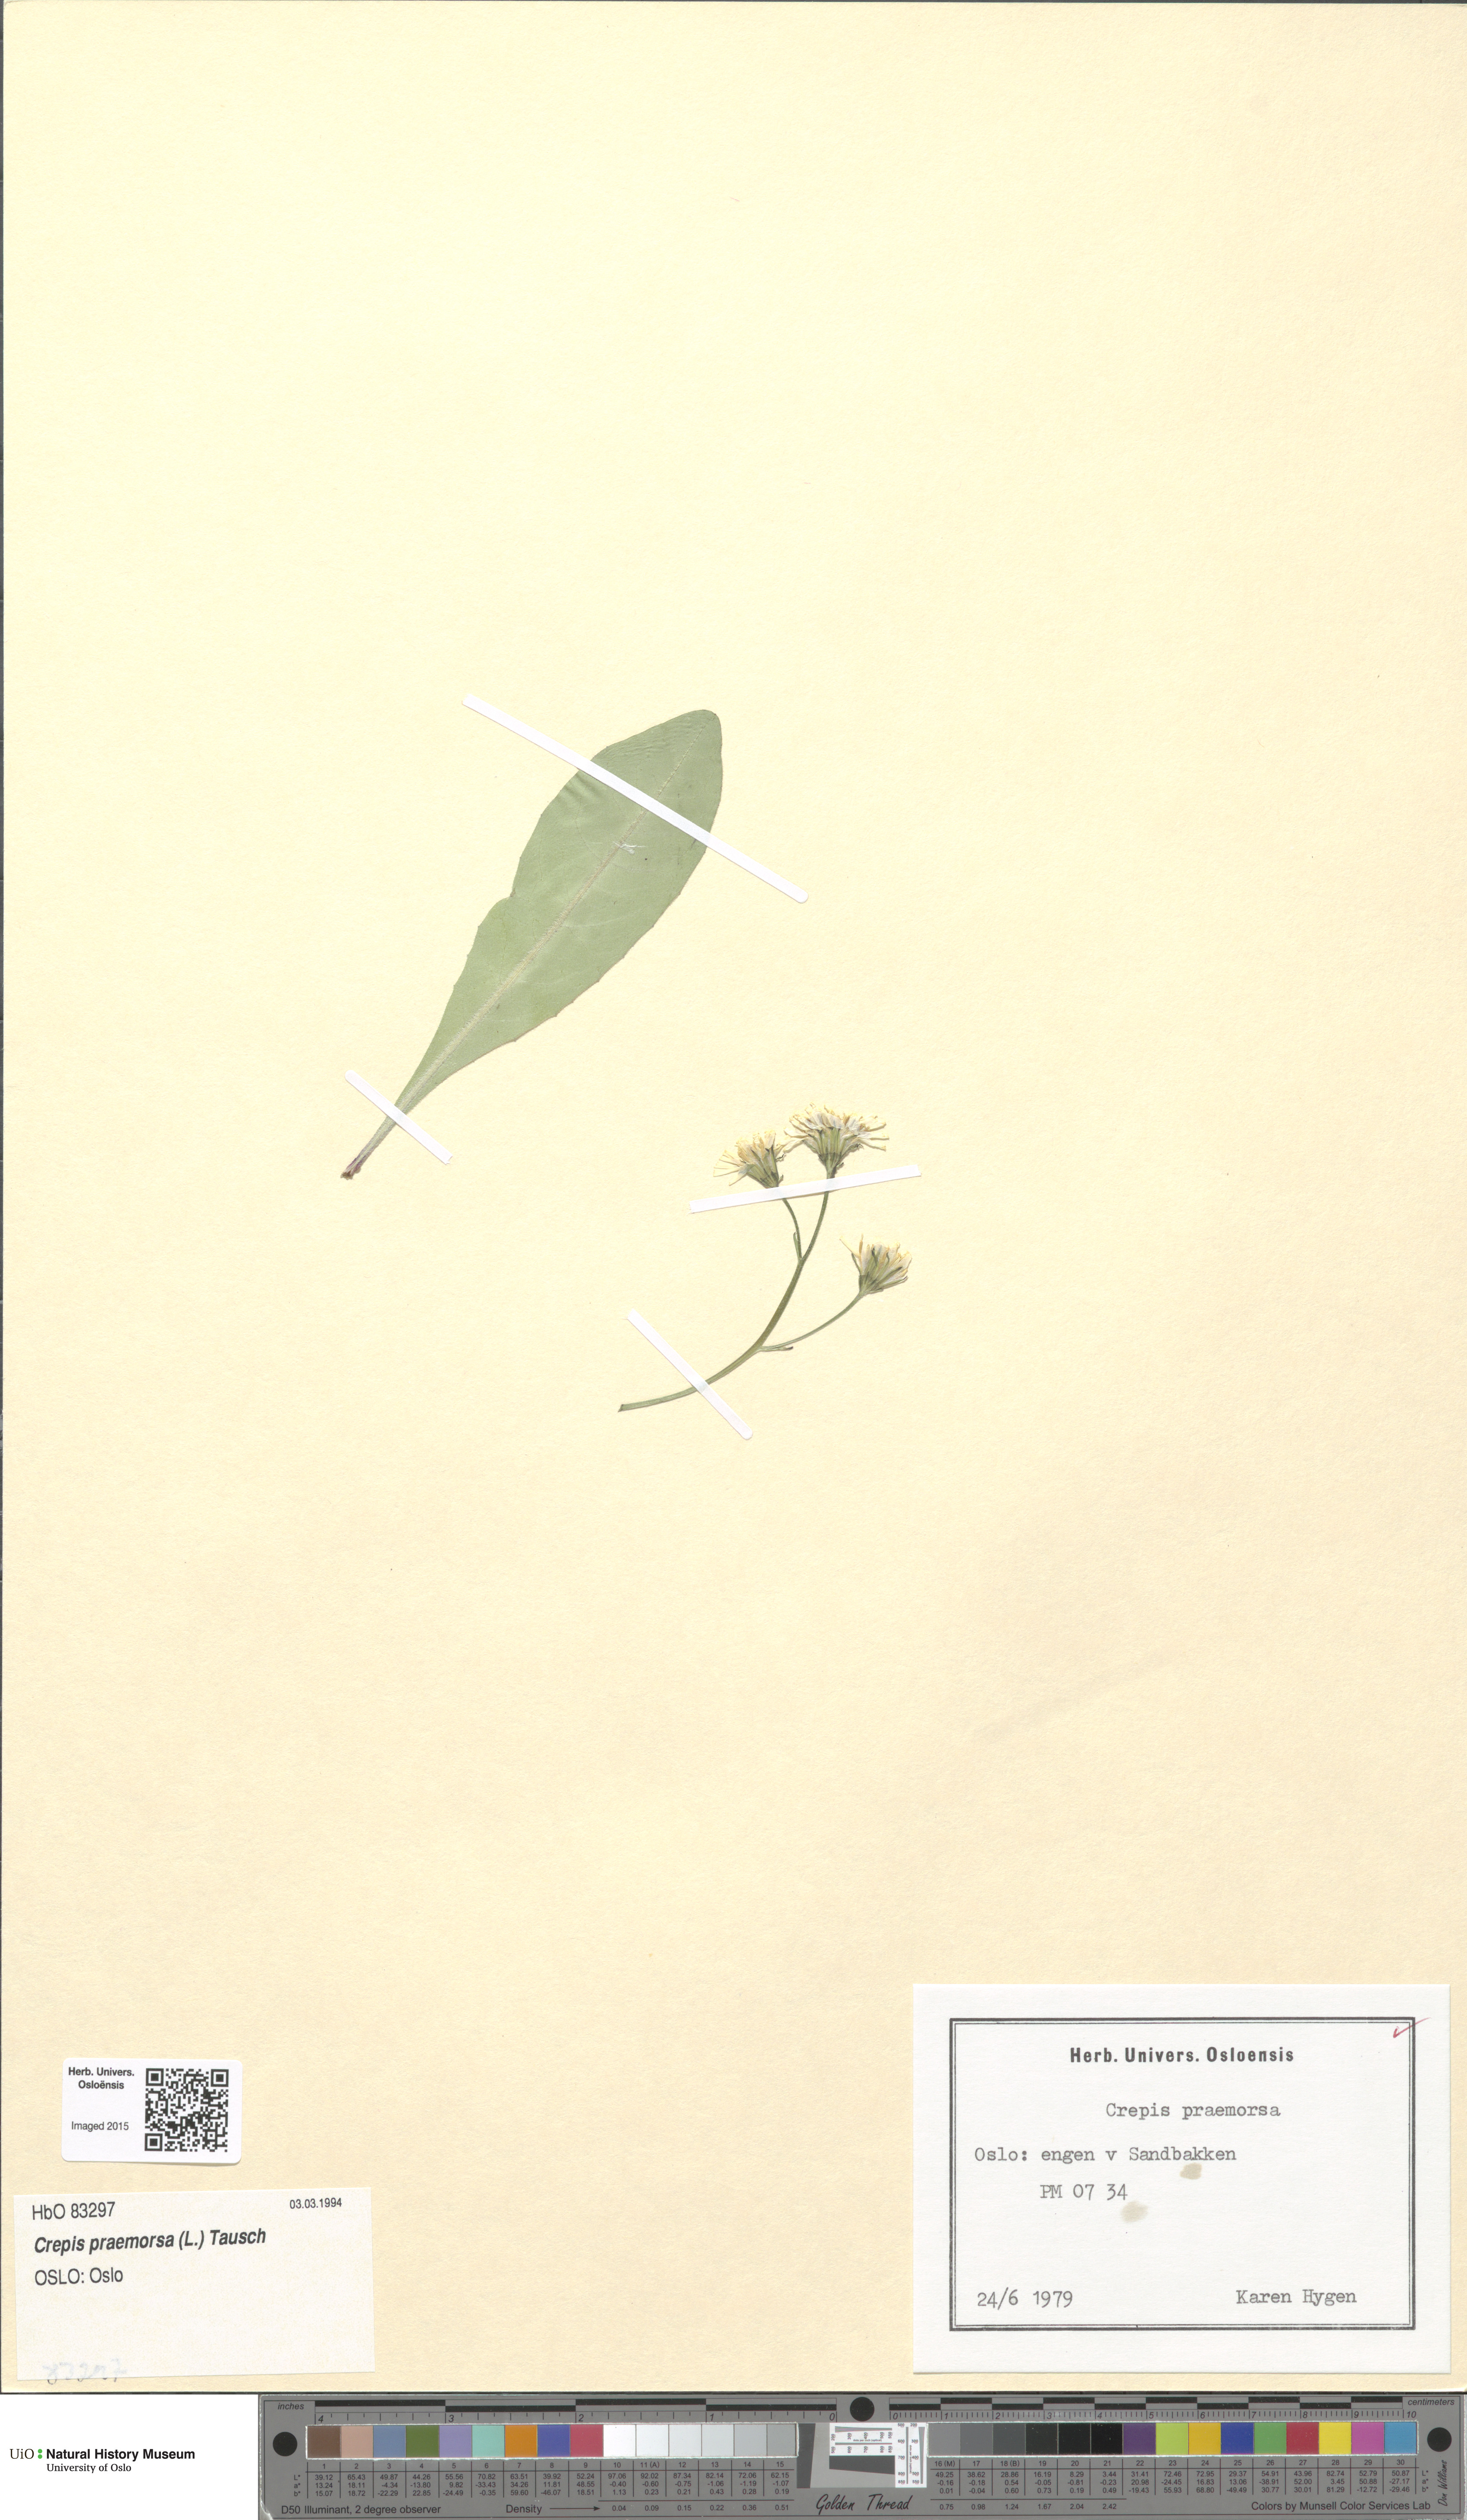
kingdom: Plantae
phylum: Tracheophyta
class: Magnoliopsida
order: Asterales
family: Asteraceae
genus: Crepis
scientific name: Crepis praemorsa
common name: Leafless hawk's-beard
